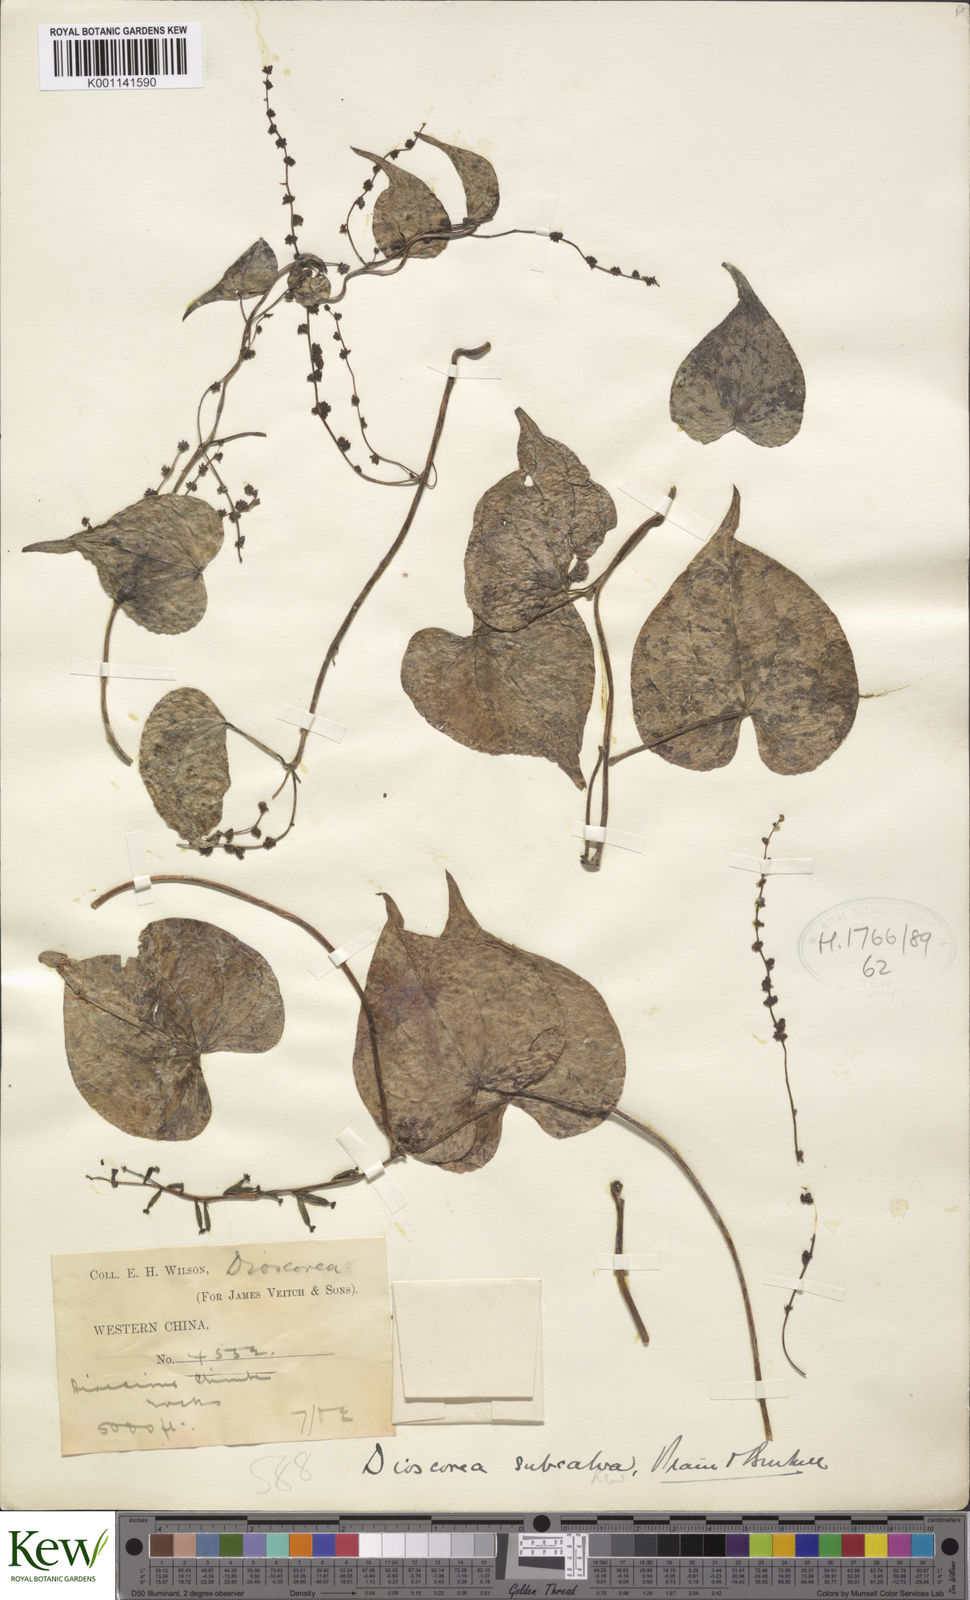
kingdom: Plantae
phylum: Tracheophyta
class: Liliopsida
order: Dioscoreales
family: Dioscoreaceae
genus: Dioscorea
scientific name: Dioscorea subcalva
